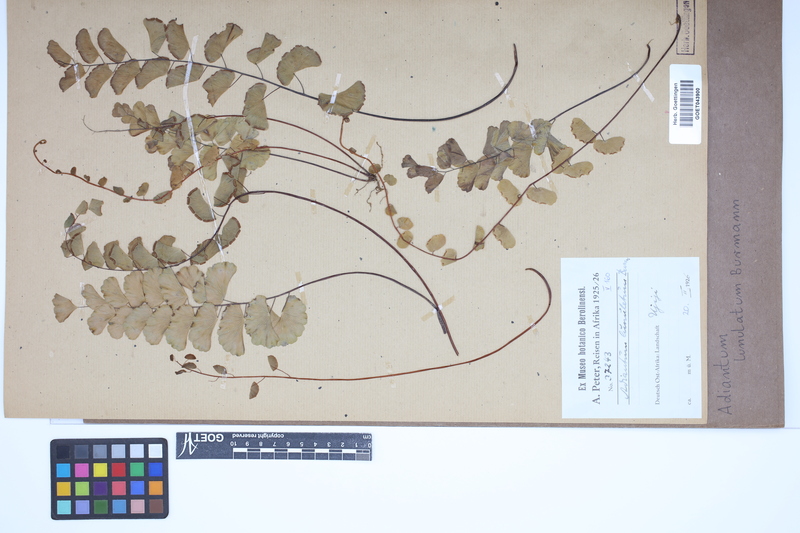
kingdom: Plantae
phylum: Tracheophyta
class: Polypodiopsida
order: Polypodiales
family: Pteridaceae
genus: Adiantum
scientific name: Adiantum philippense
